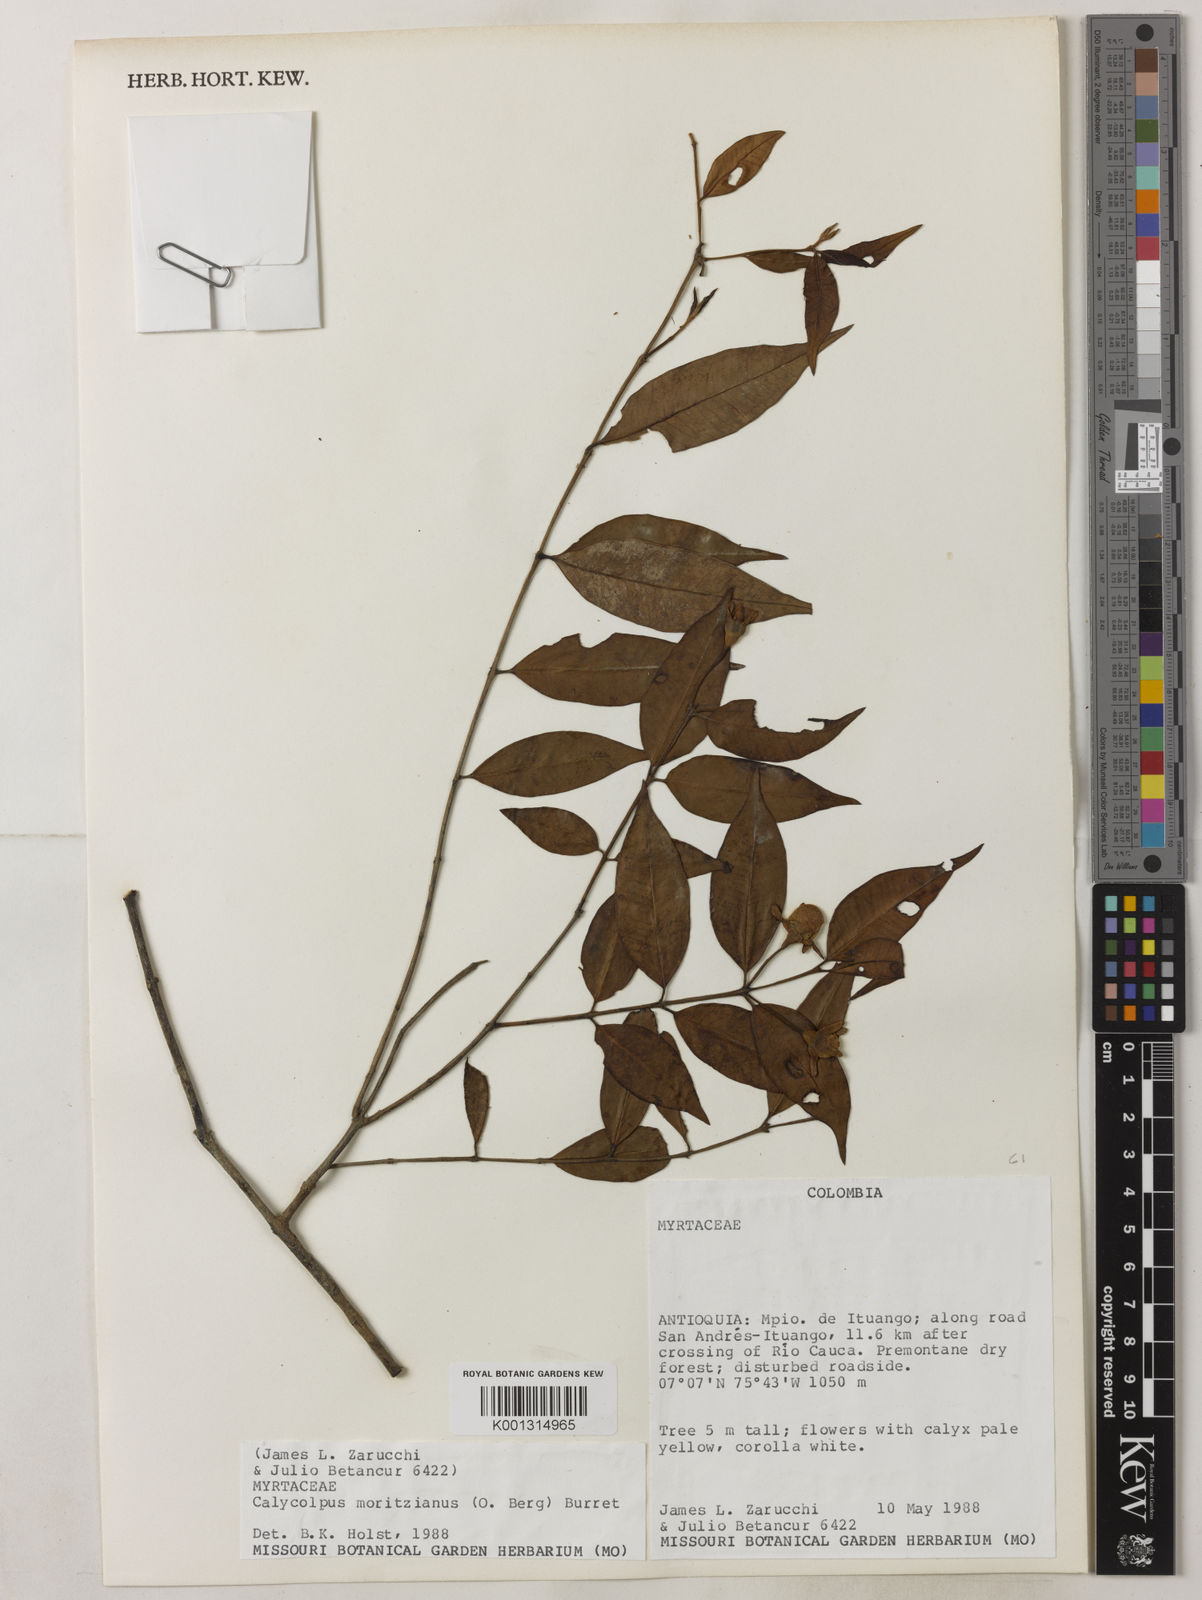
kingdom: Plantae
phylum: Tracheophyta
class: Magnoliopsida
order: Myrtales
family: Myrtaceae
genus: Calycolpus
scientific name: Calycolpus moritzianus
